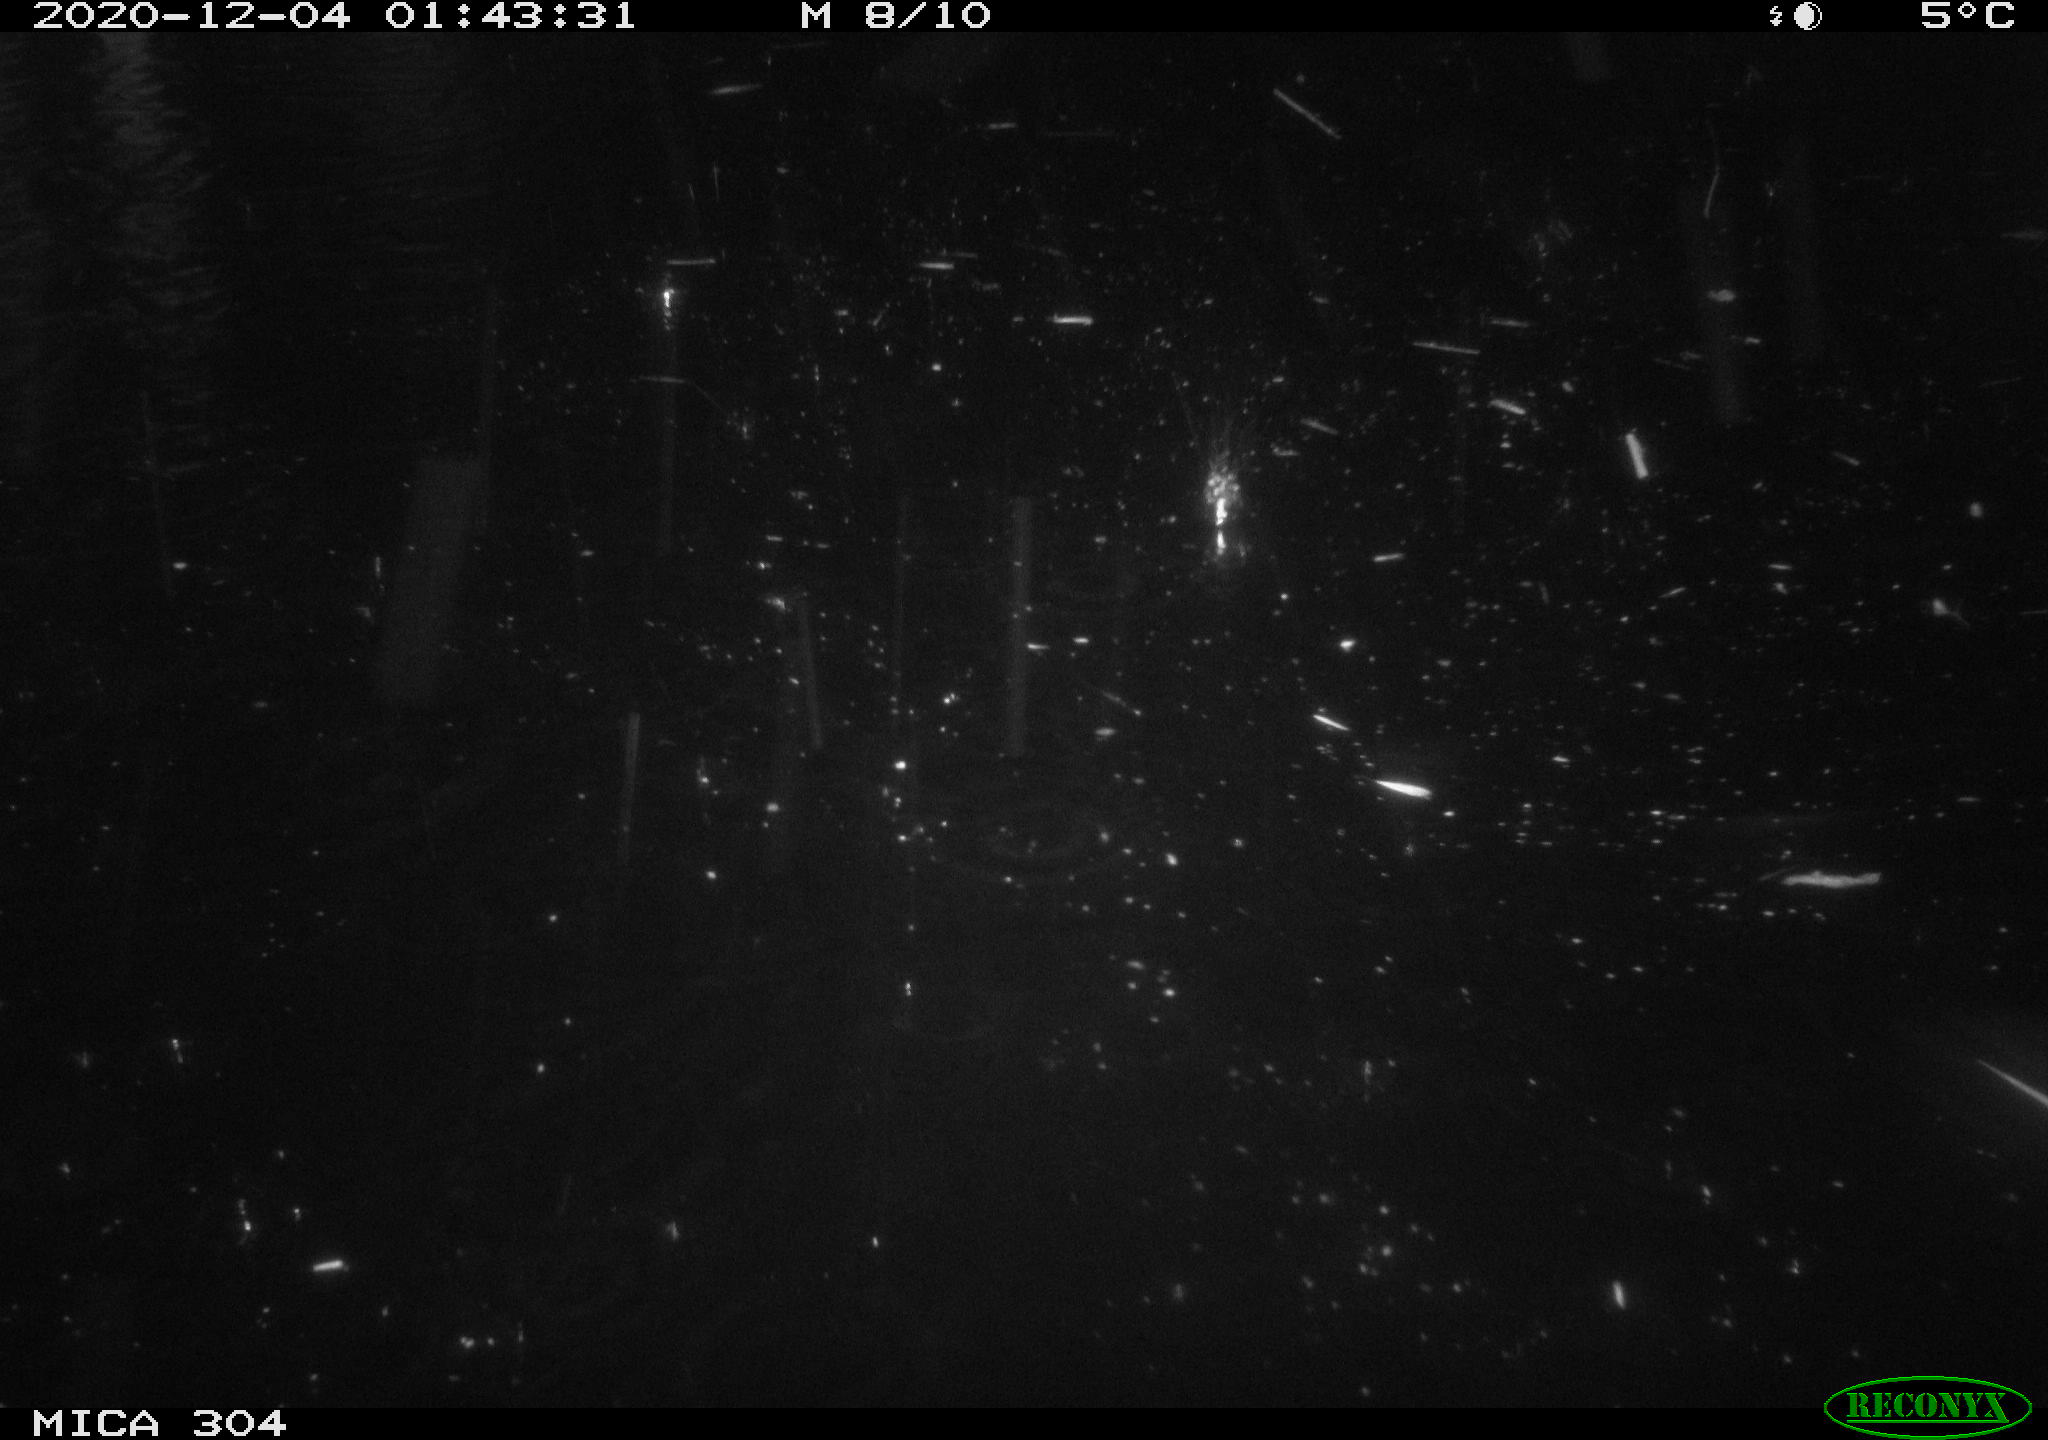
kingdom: Animalia
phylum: Chordata
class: Mammalia
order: Rodentia
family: Muridae
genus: Rattus
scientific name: Rattus norvegicus
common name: Brown rat
